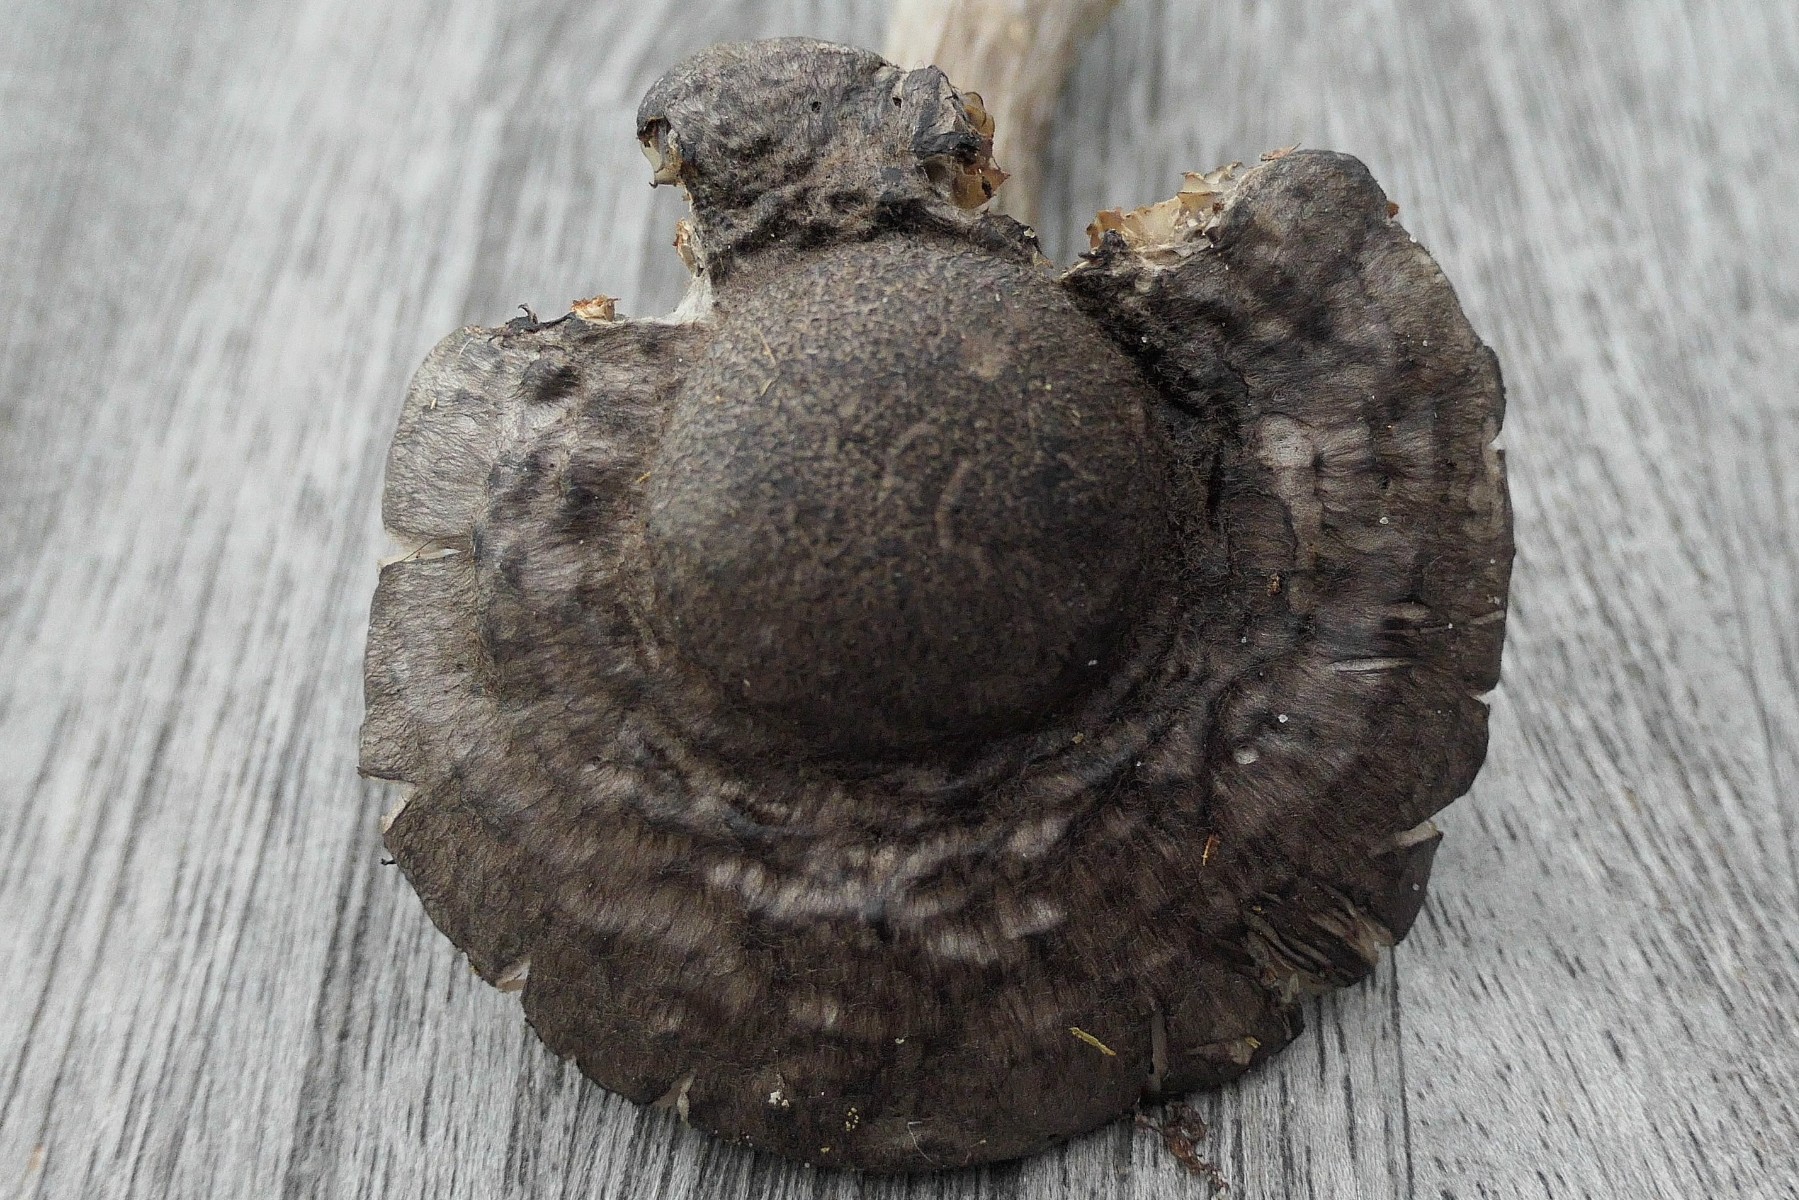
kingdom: Fungi
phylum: Basidiomycota
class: Agaricomycetes
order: Agaricales
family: Pluteaceae
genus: Pluteus
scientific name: Pluteus atromarginatus
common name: sortrandet skærmhat
